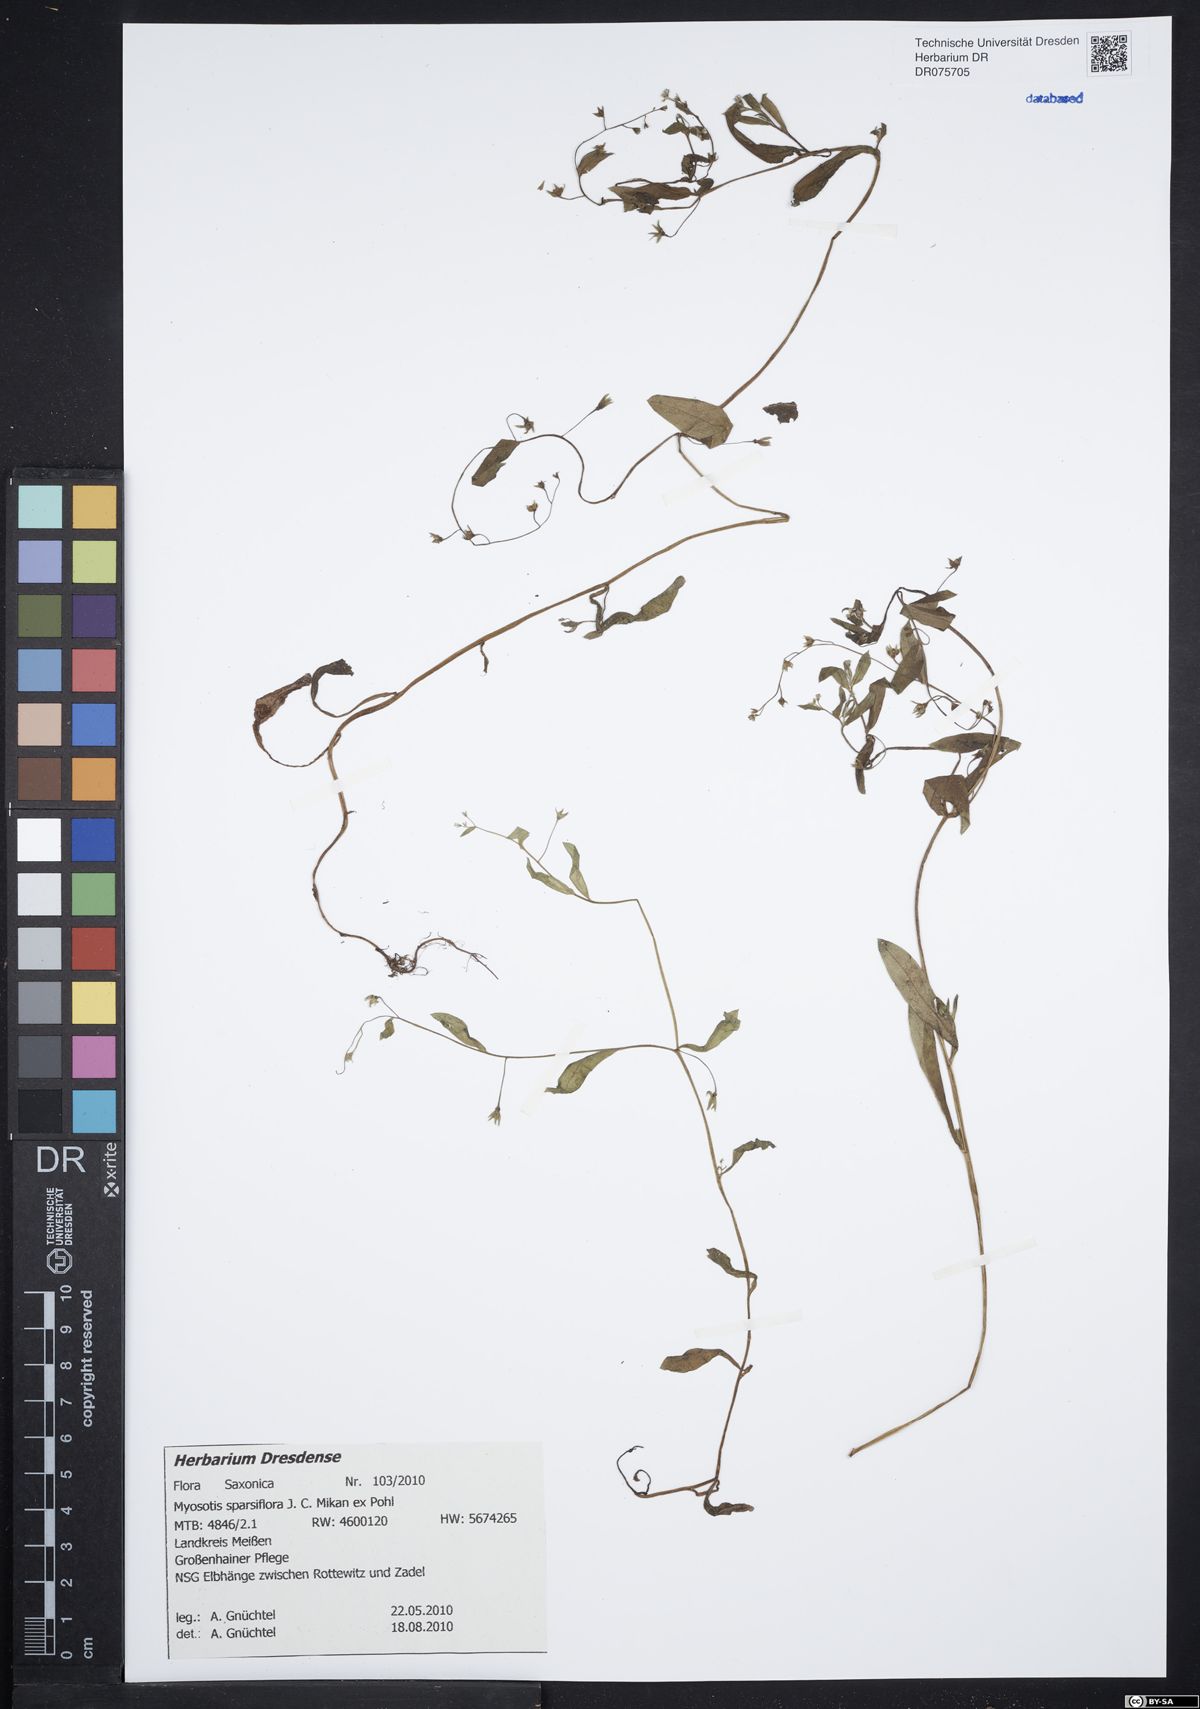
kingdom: Plantae
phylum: Tracheophyta
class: Magnoliopsida
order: Boraginales
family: Boraginaceae
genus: Myosotis
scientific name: Myosotis sparsiflora
